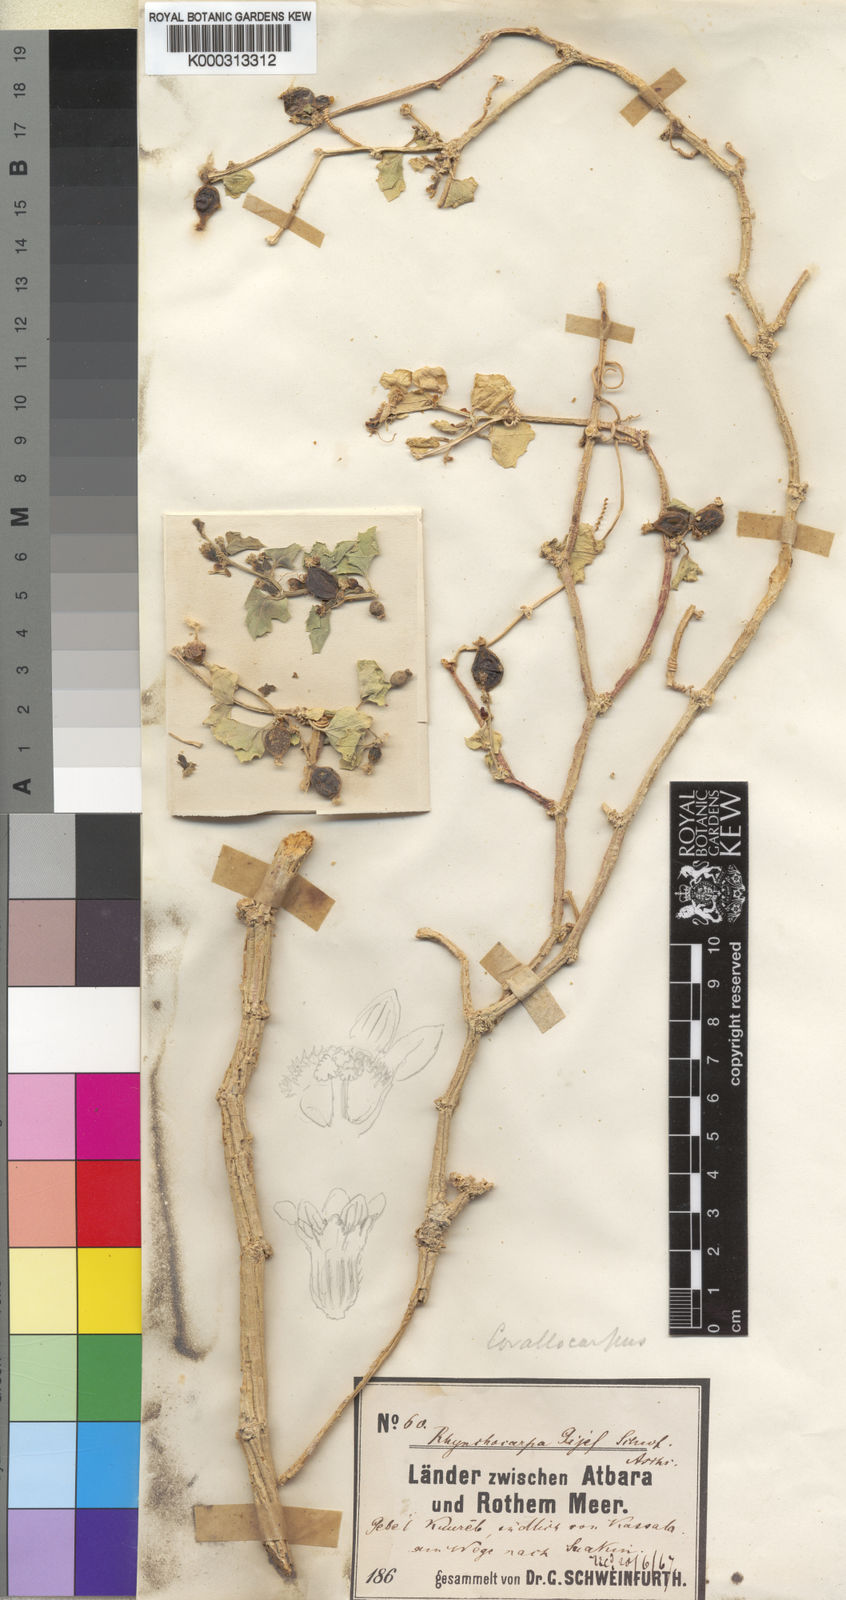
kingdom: Plantae
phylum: Tracheophyta
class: Magnoliopsida
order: Cucurbitales
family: Cucurbitaceae
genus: Kedrostis
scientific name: Kedrostis gijef
